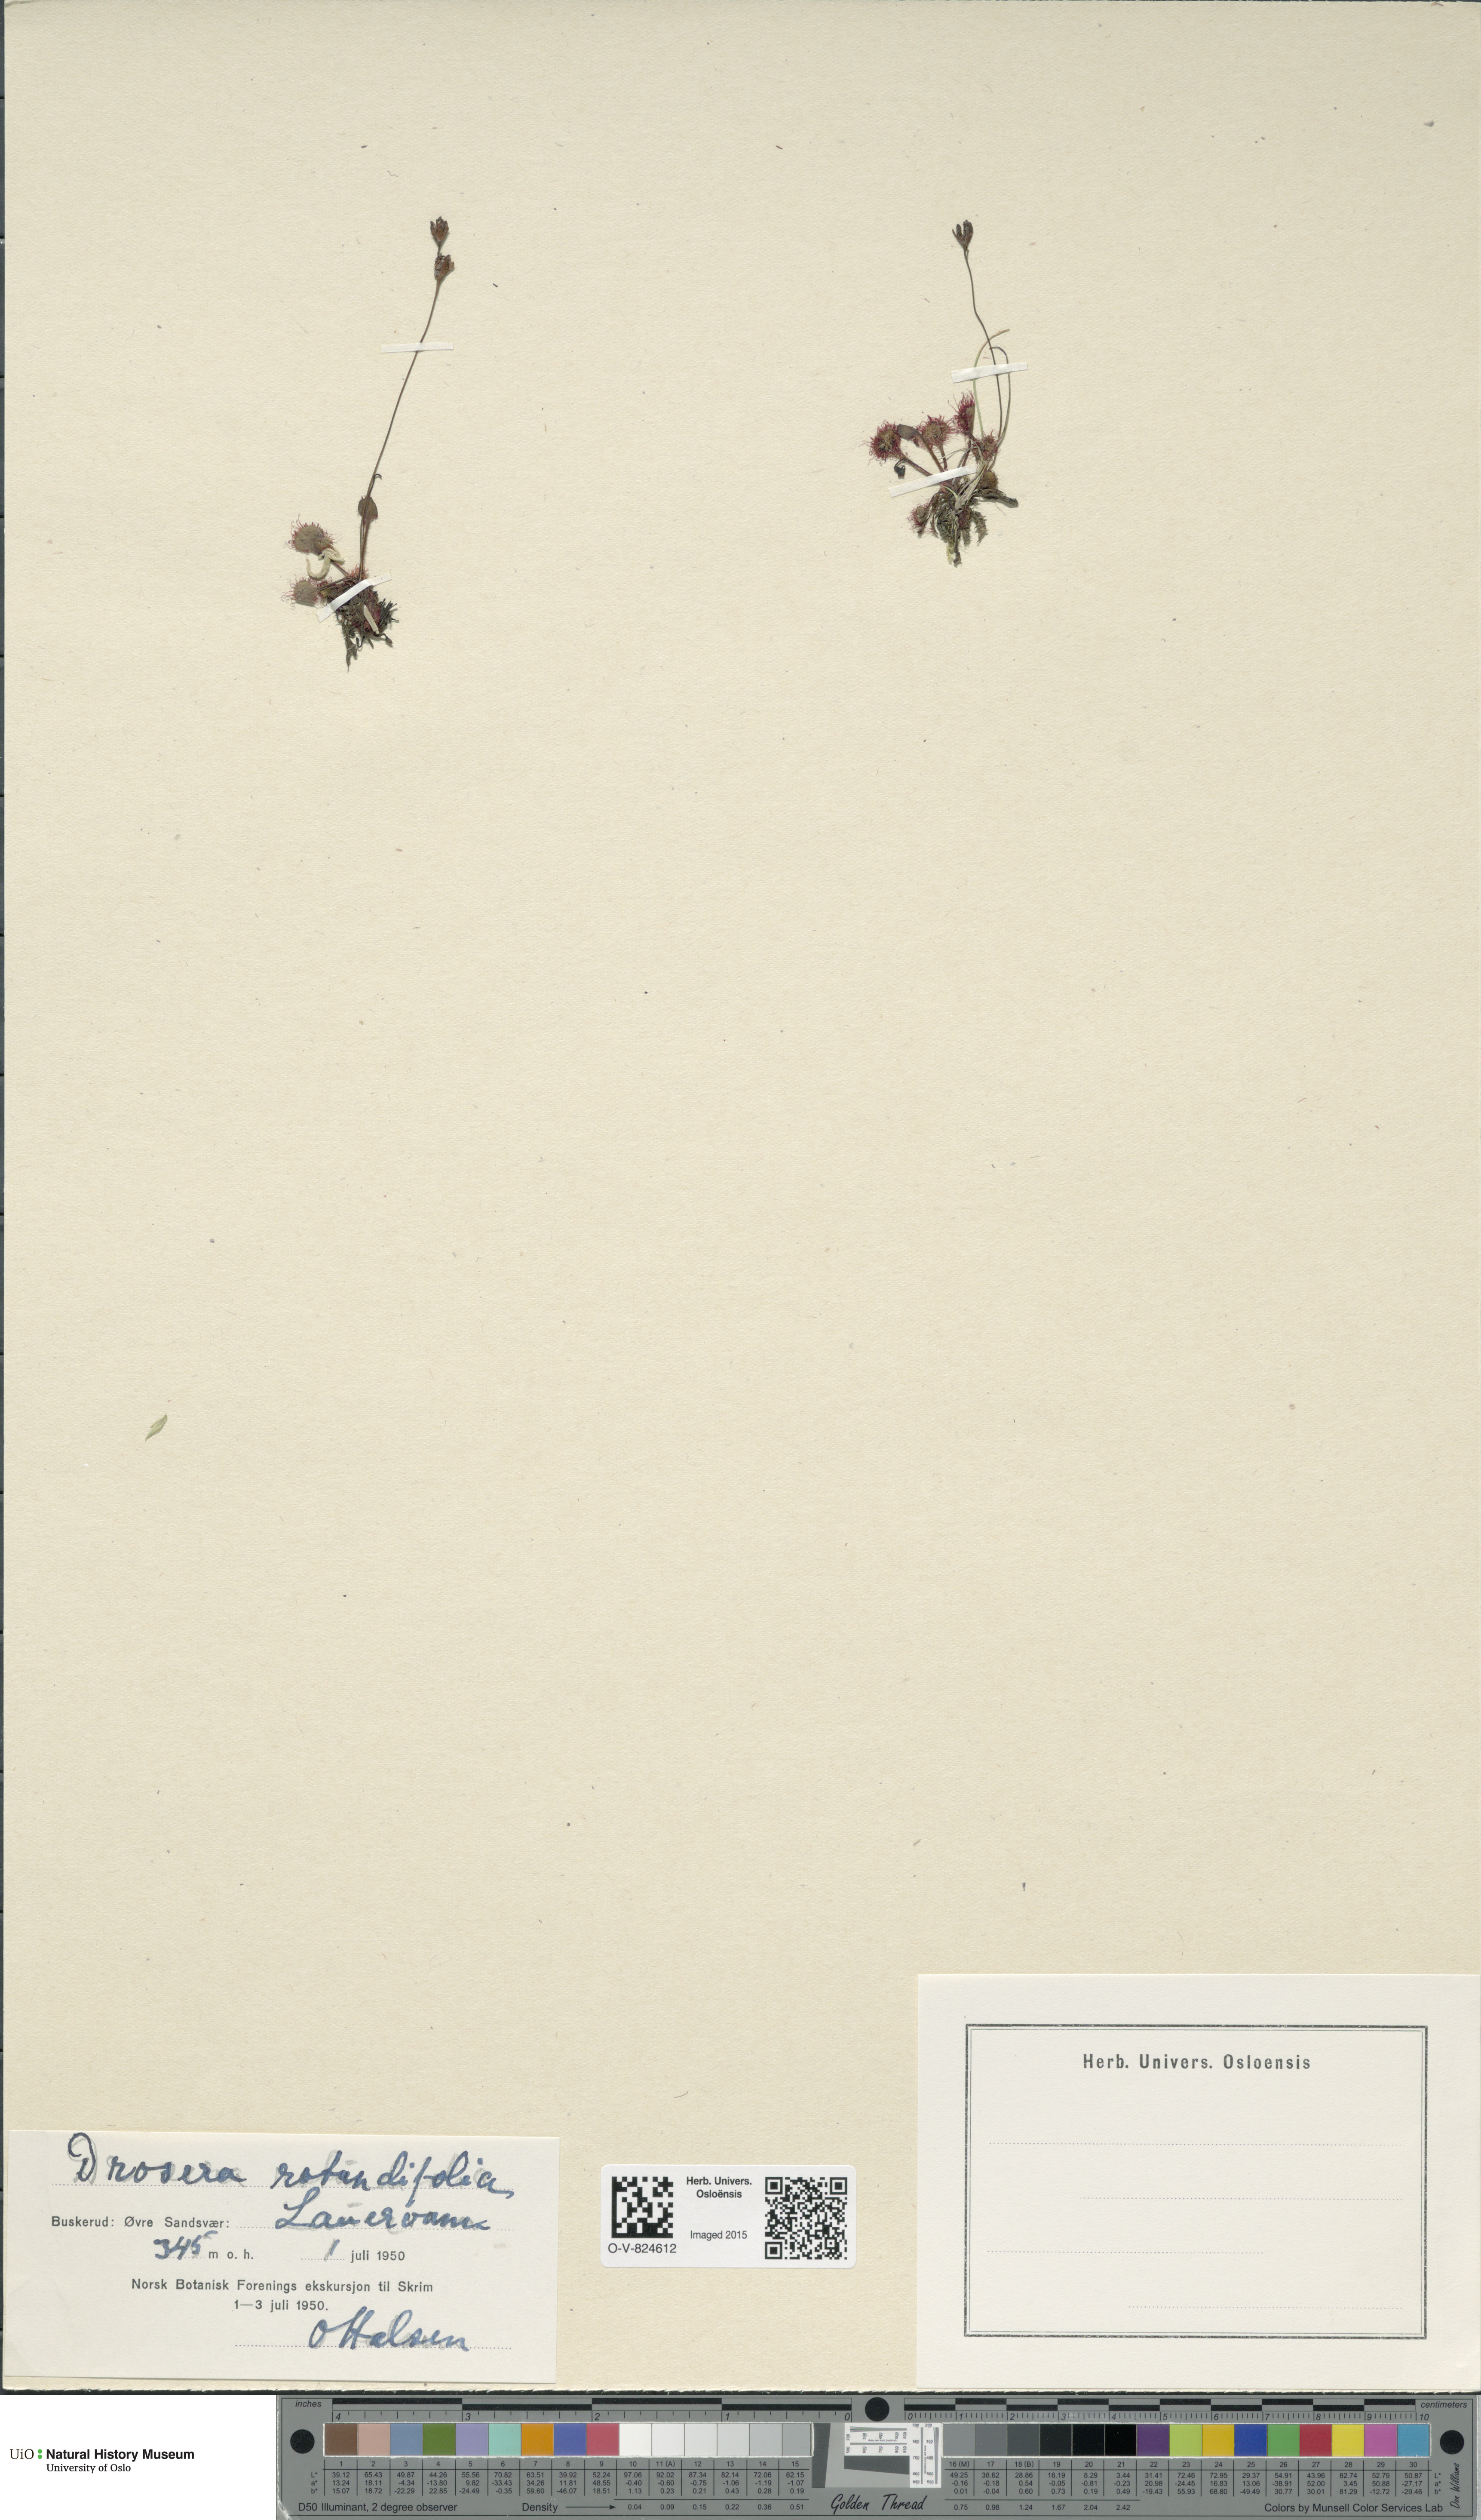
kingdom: Plantae
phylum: Tracheophyta
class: Magnoliopsida
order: Caryophyllales
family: Droseraceae
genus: Drosera
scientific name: Drosera rotundifolia
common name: Round-leaved sundew
